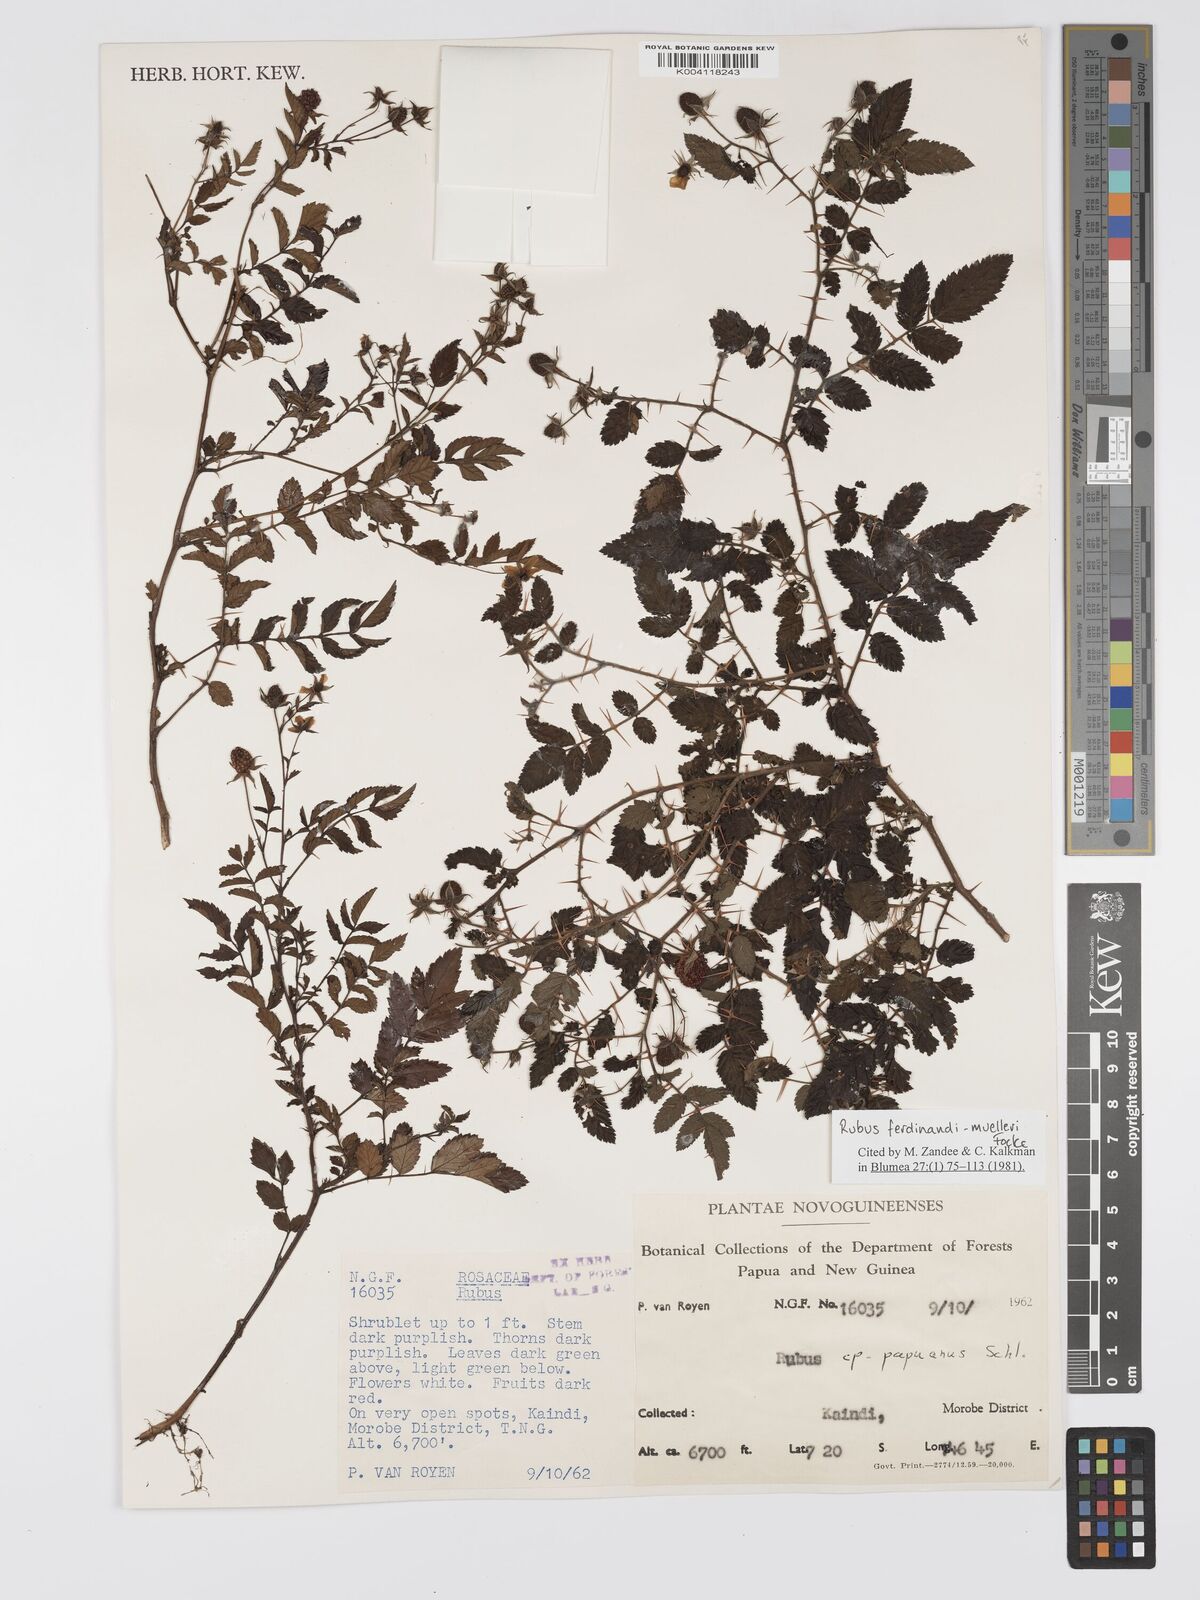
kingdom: Plantae
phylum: Tracheophyta
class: Magnoliopsida
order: Rosales
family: Rosaceae
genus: Rubus
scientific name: Rubus ferdinandimuelleri
